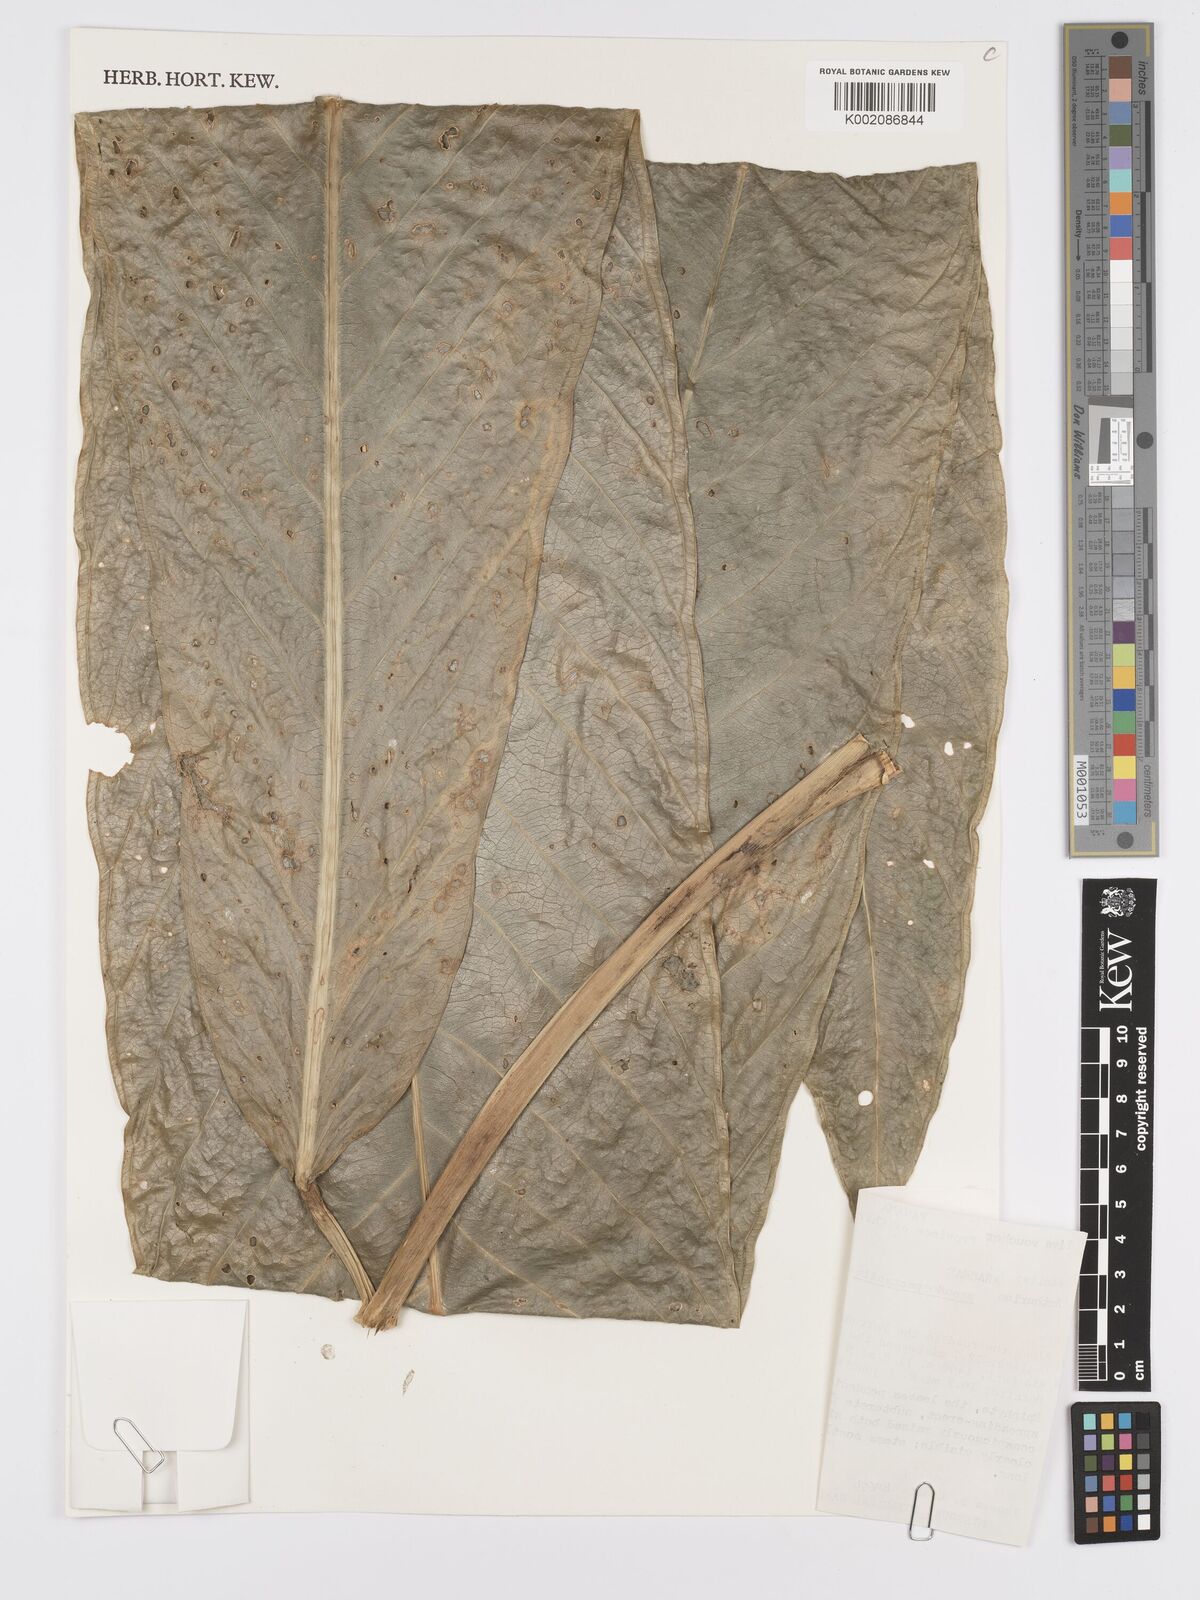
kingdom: Plantae
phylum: Tracheophyta
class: Liliopsida
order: Alismatales
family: Araceae
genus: Anthurium
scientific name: Anthurium pseudospectabile
